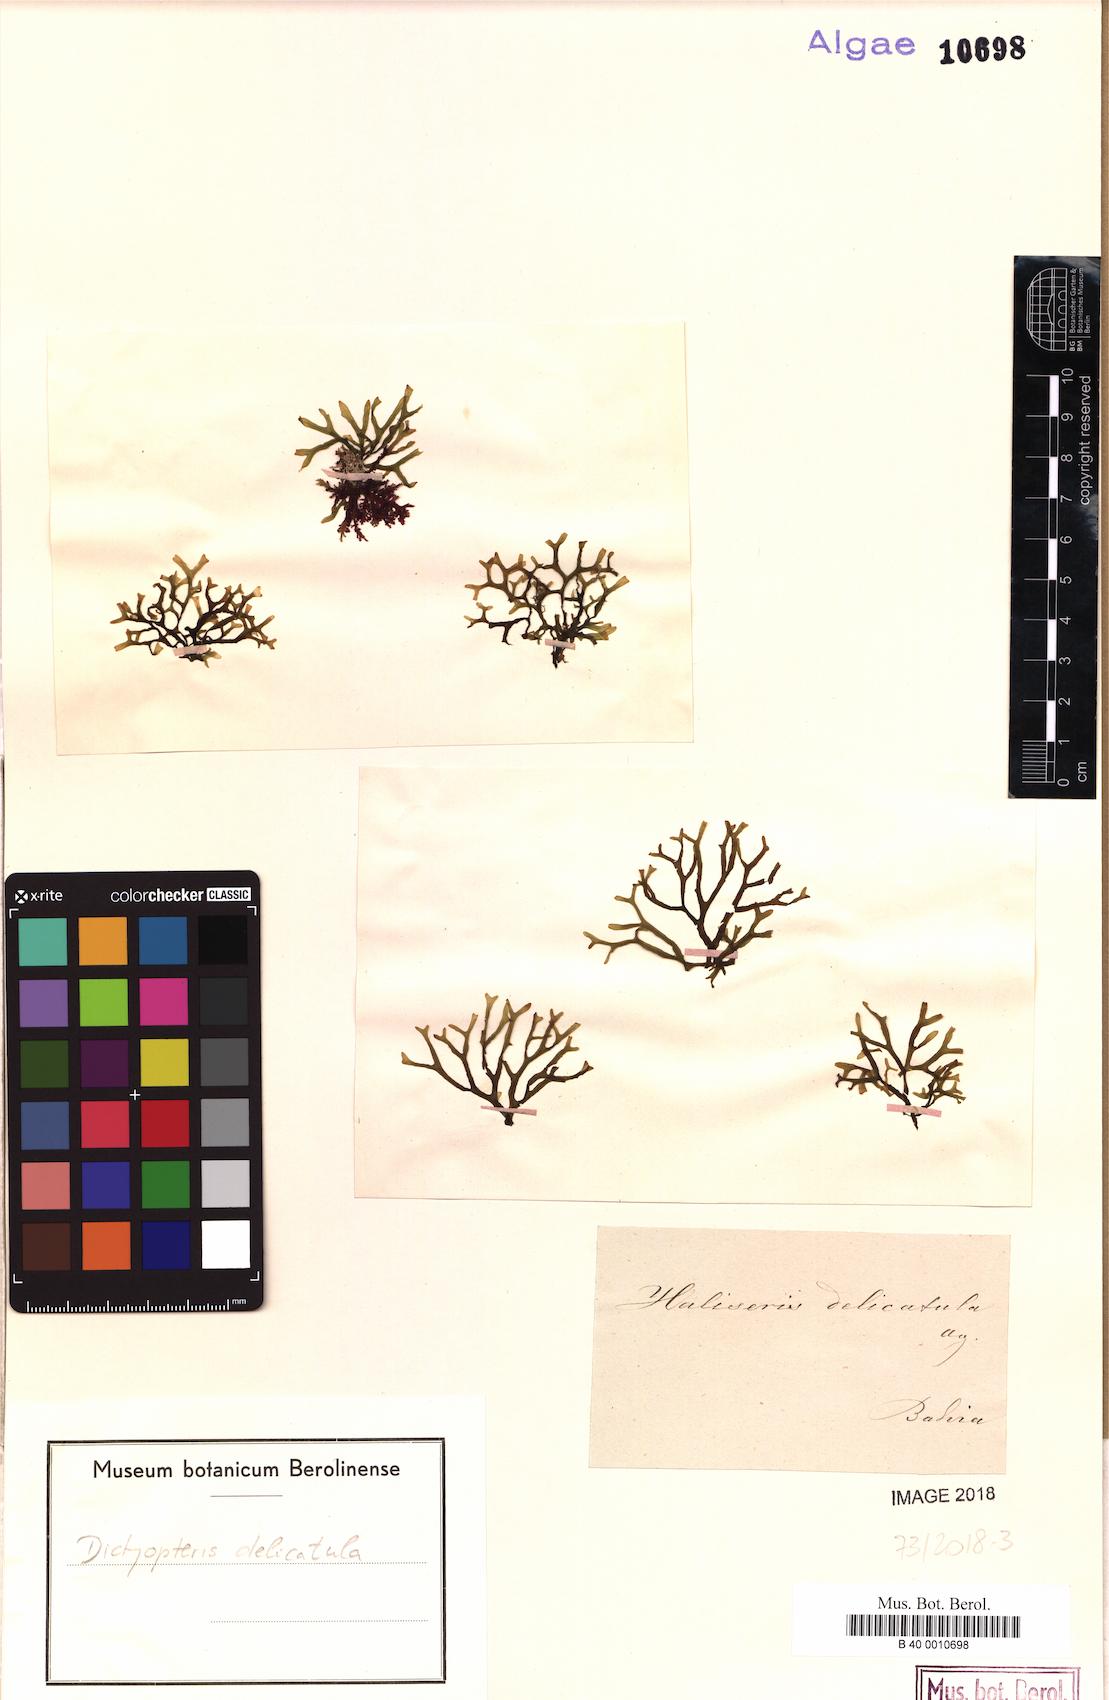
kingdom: Chromista
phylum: Ochrophyta
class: Phaeophyceae
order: Dictyotales
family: Dictyotaceae
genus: Dictyopteris
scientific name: Dictyopteris delicatula
